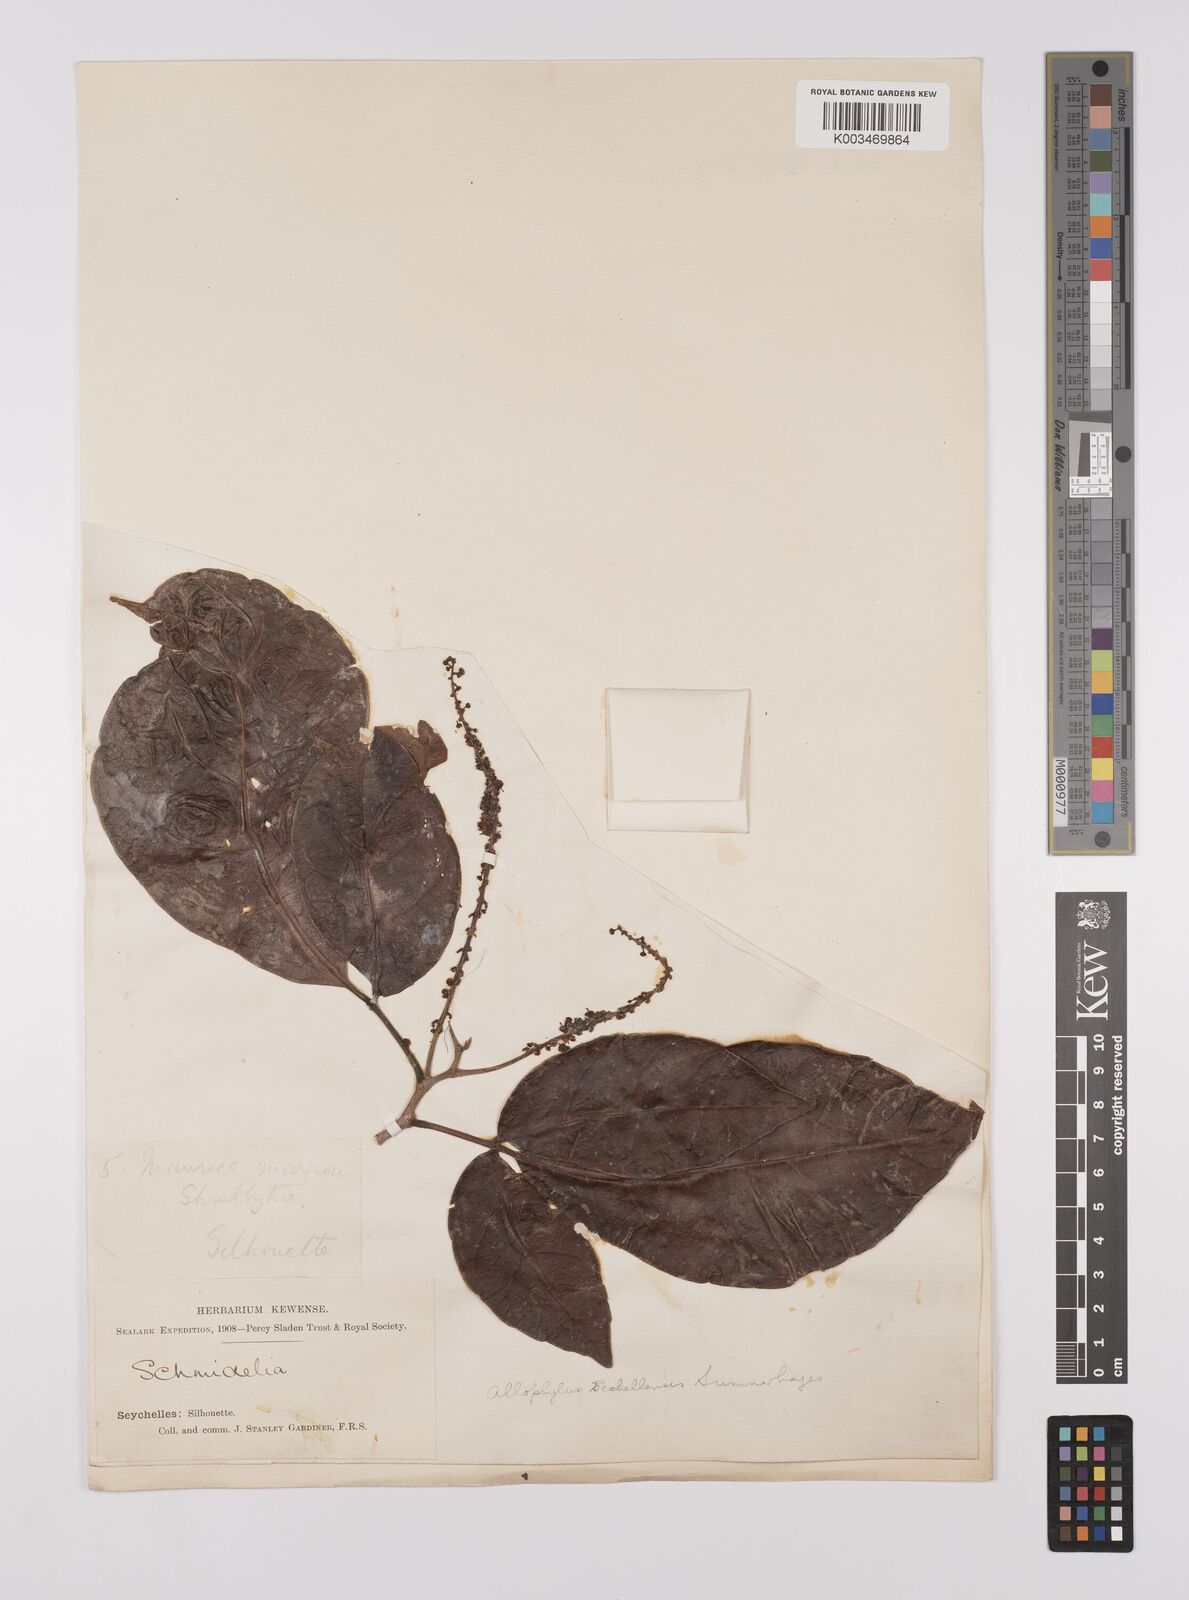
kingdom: Plantae
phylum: Tracheophyta
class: Magnoliopsida
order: Sapindales
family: Sapindaceae
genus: Allophylus
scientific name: Allophylus sechellensis
